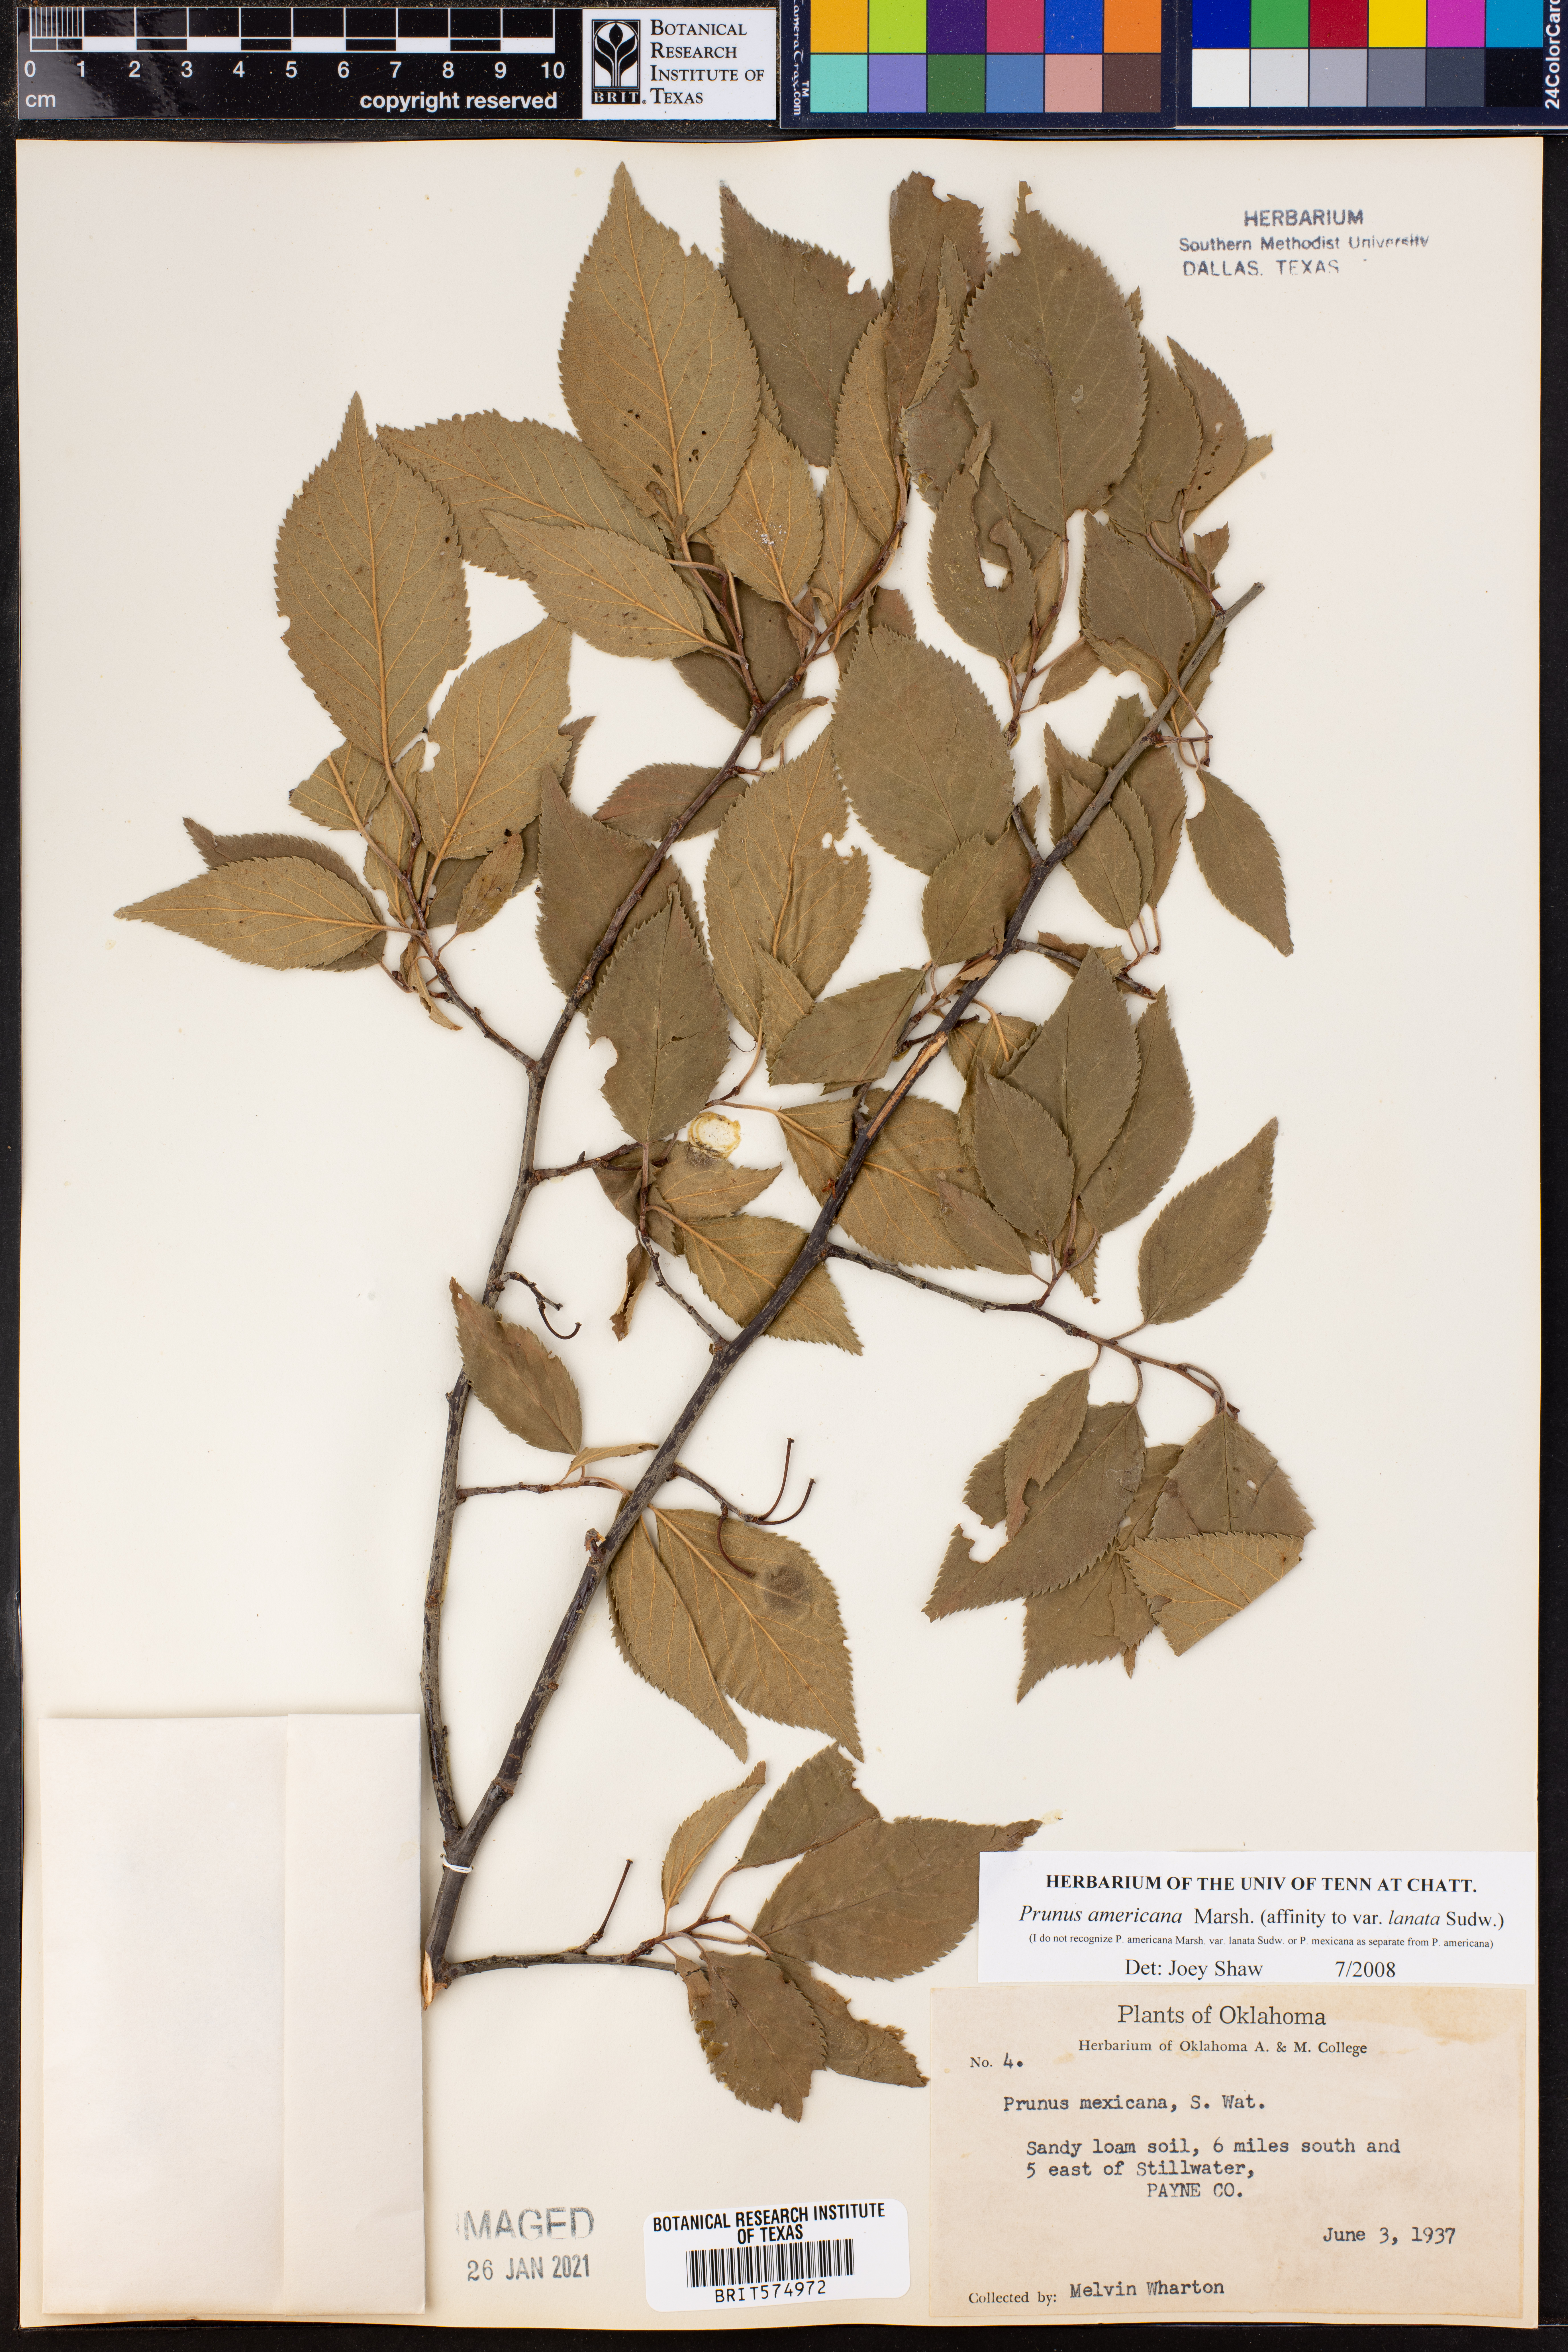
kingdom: Plantae
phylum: Tracheophyta
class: Magnoliopsida
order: Rosales
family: Rosaceae
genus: Prunus
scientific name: Prunus americana
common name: American plum
